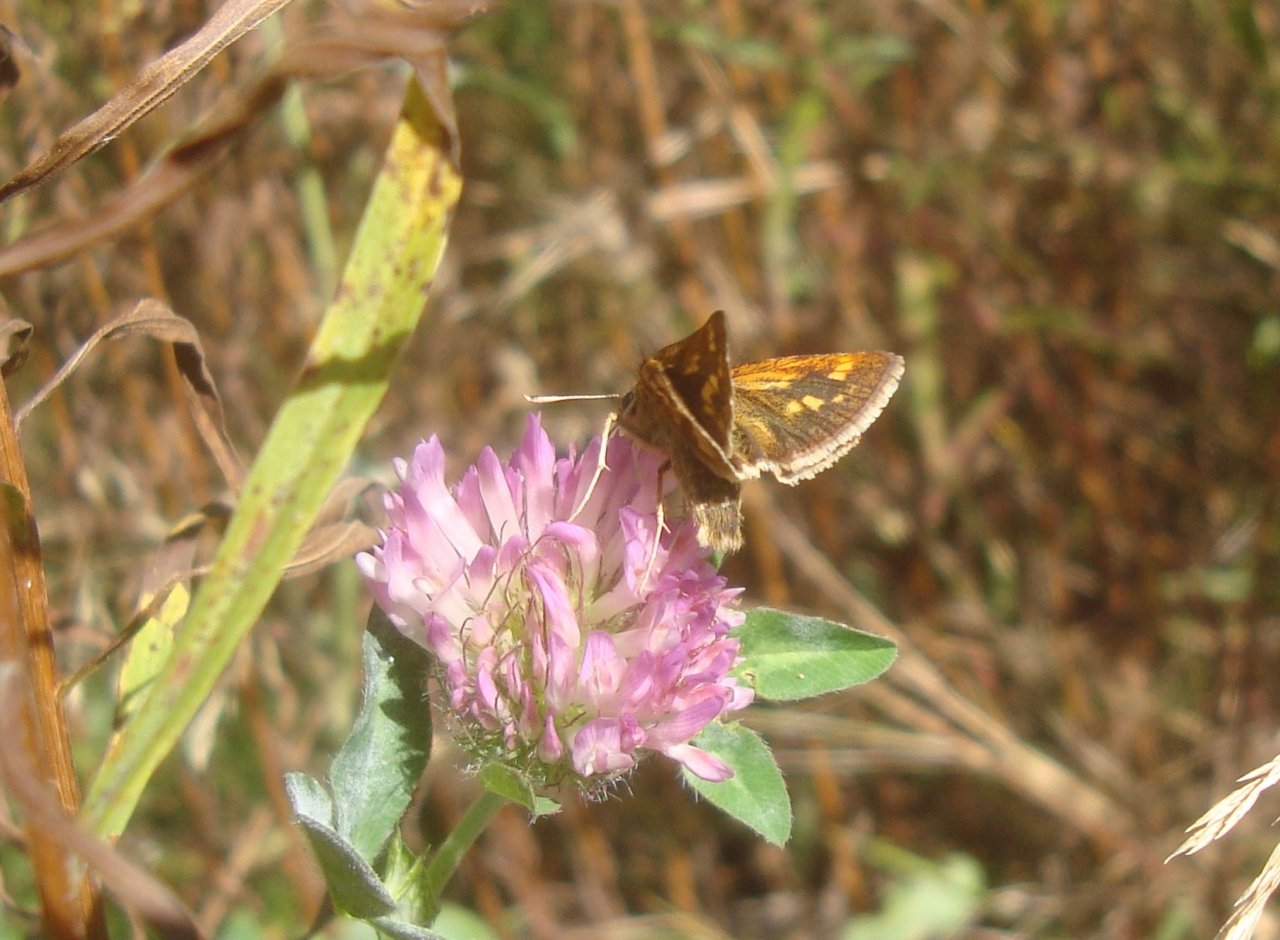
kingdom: Animalia
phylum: Arthropoda
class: Insecta
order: Lepidoptera
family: Hesperiidae
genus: Polites
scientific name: Polites coras
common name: Peck's Skipper
